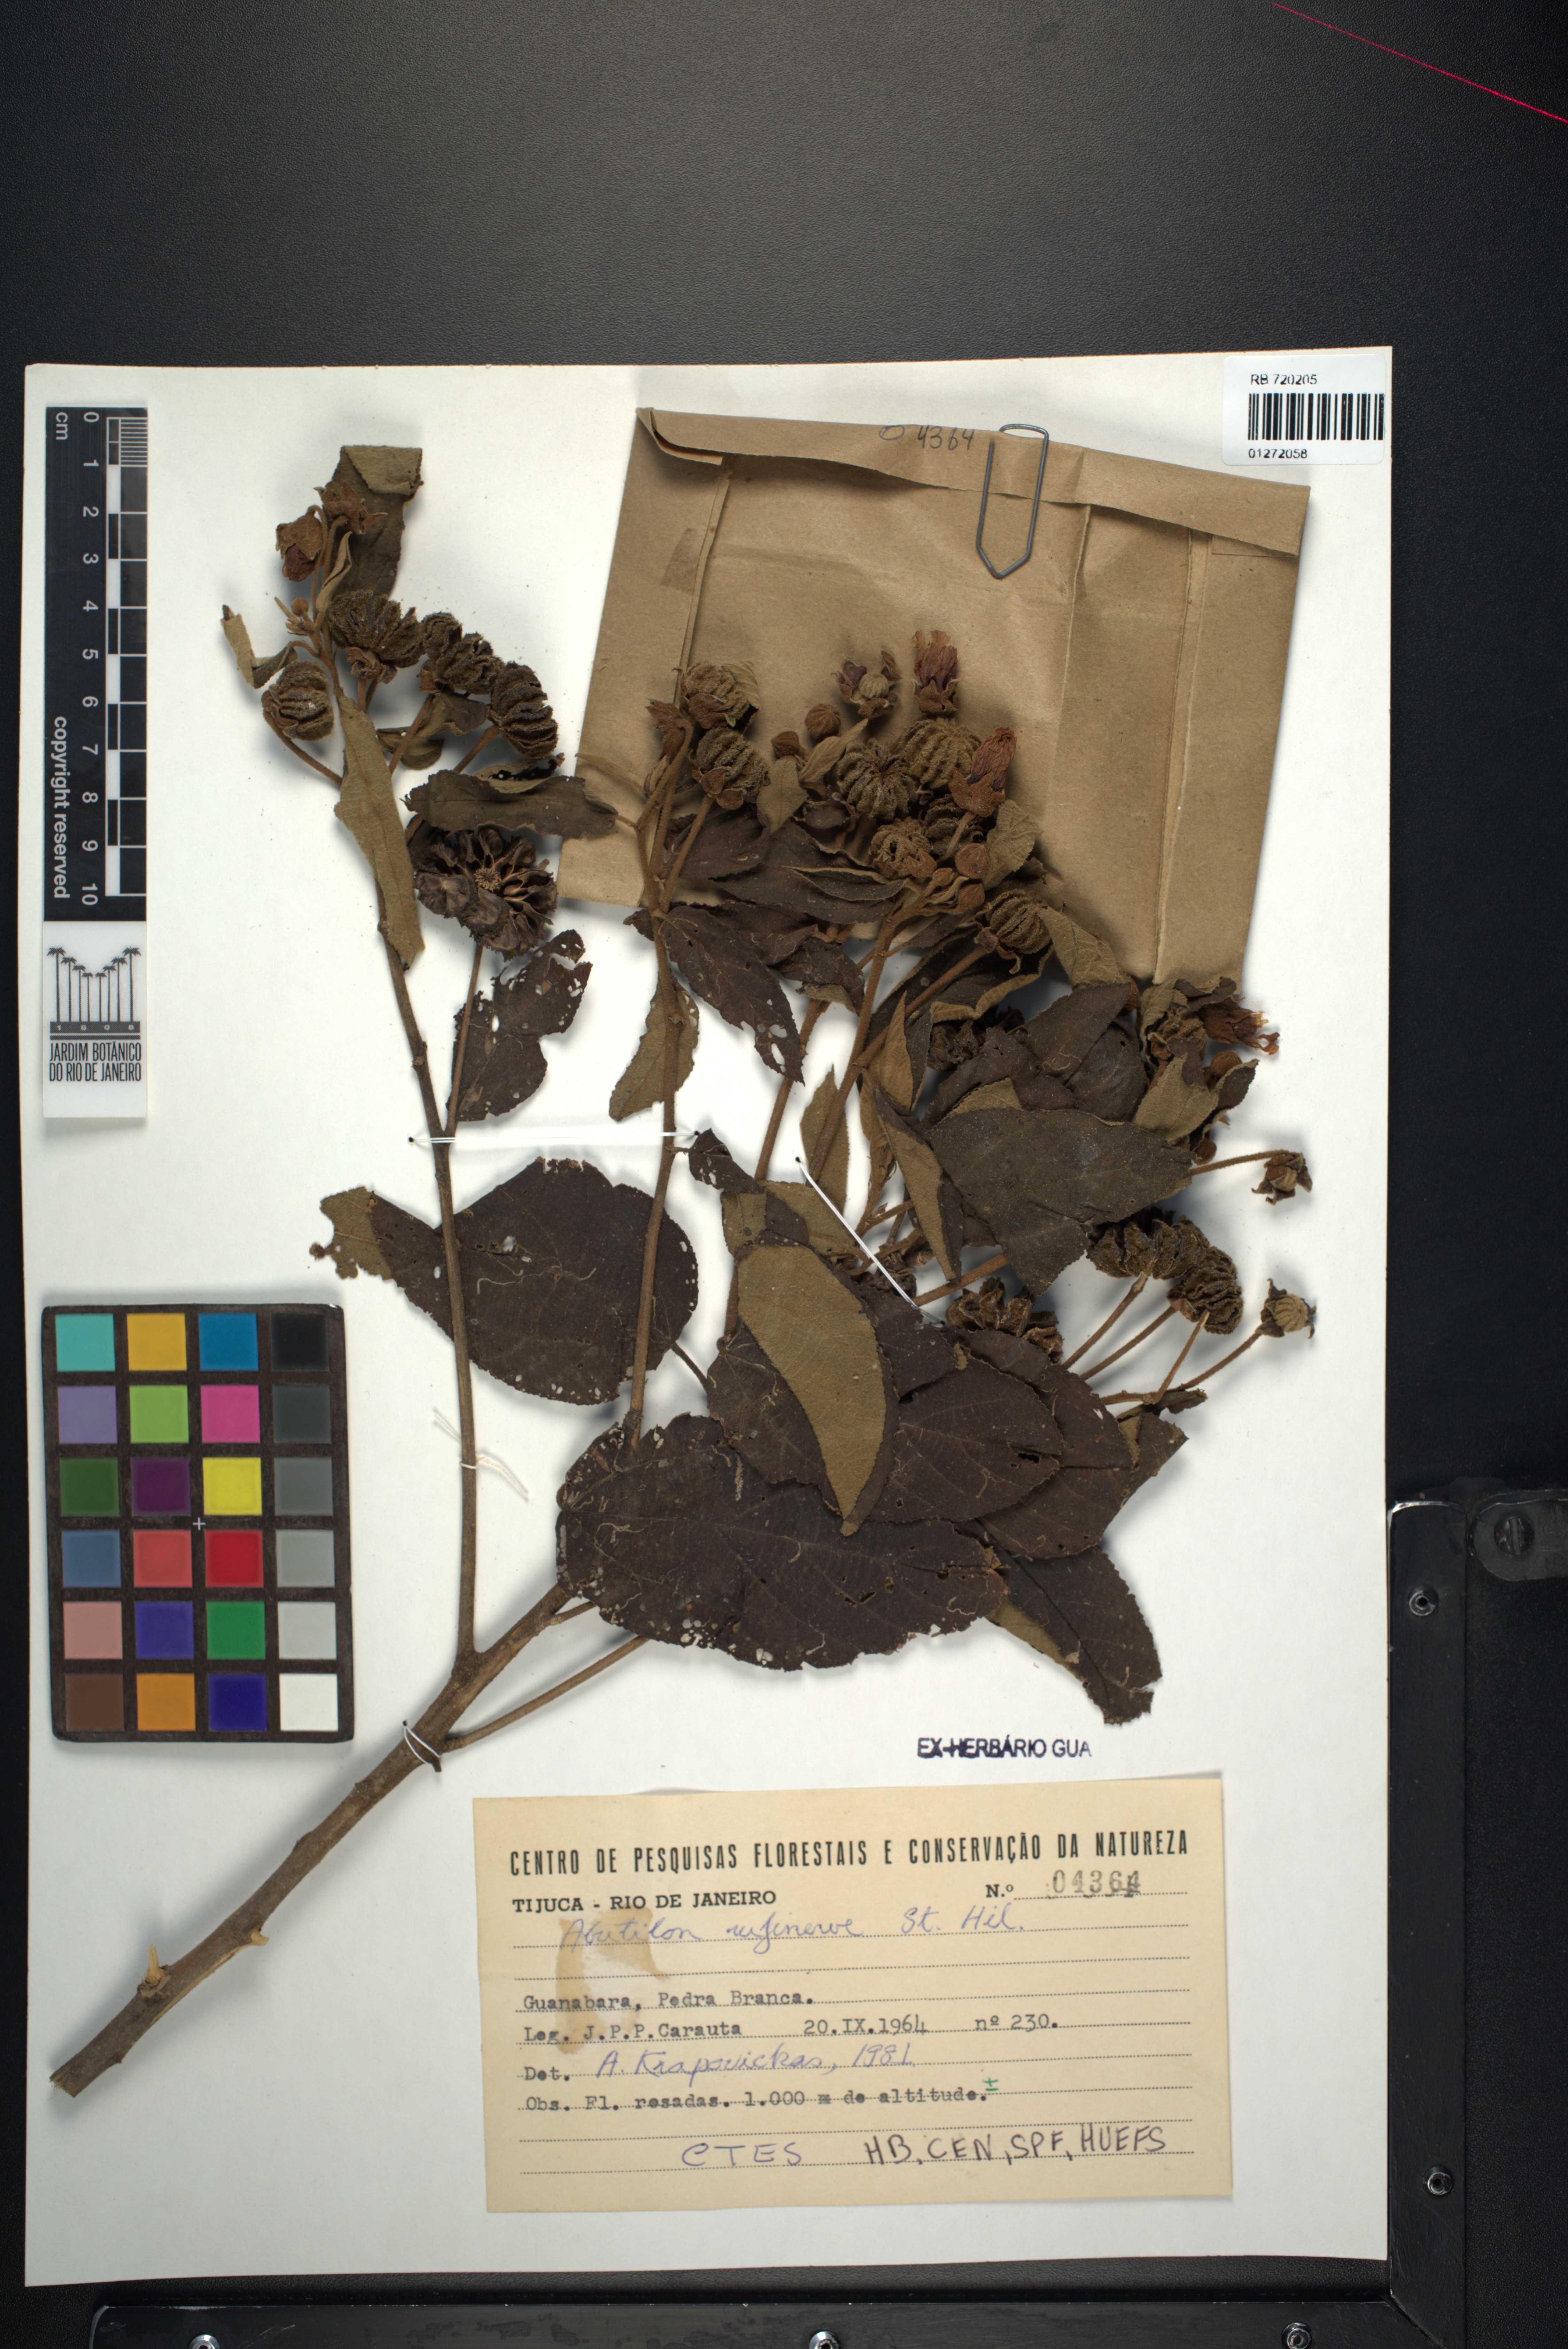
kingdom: Plantae
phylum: Tracheophyta
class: Magnoliopsida
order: Malvales
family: Malvaceae
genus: Callianthe
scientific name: Callianthe rufinerva
